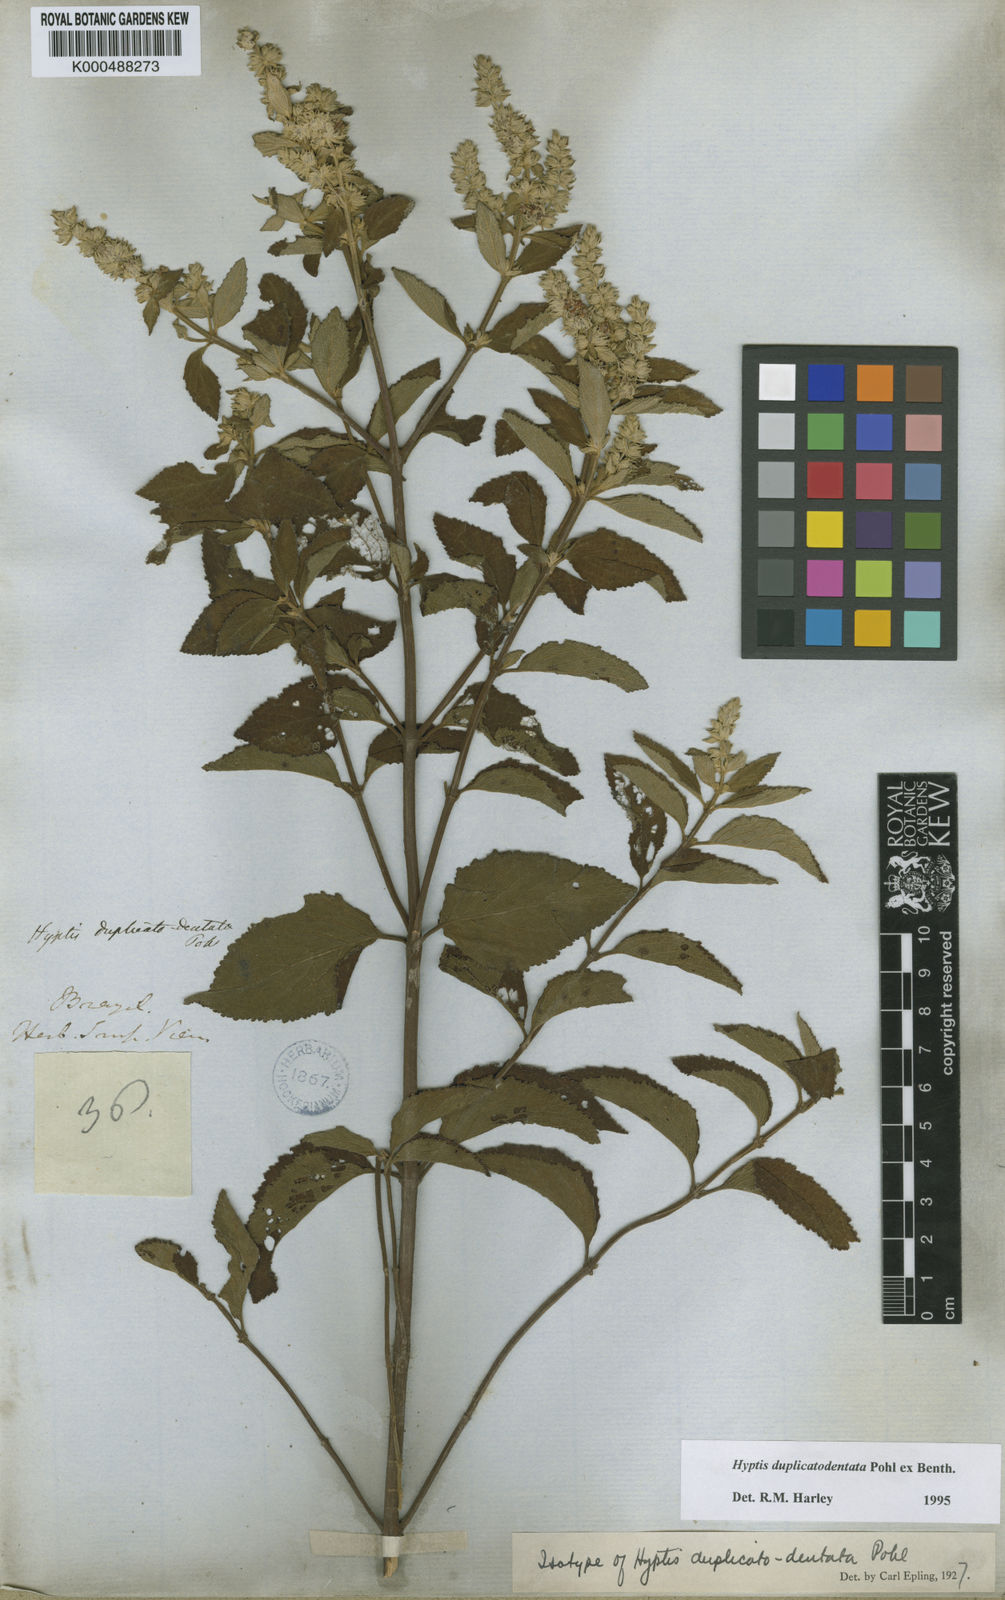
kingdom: Plantae
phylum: Tracheophyta
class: Magnoliopsida
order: Lamiales
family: Lamiaceae
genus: Cantinoa
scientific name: Cantinoa duplicatodentata
